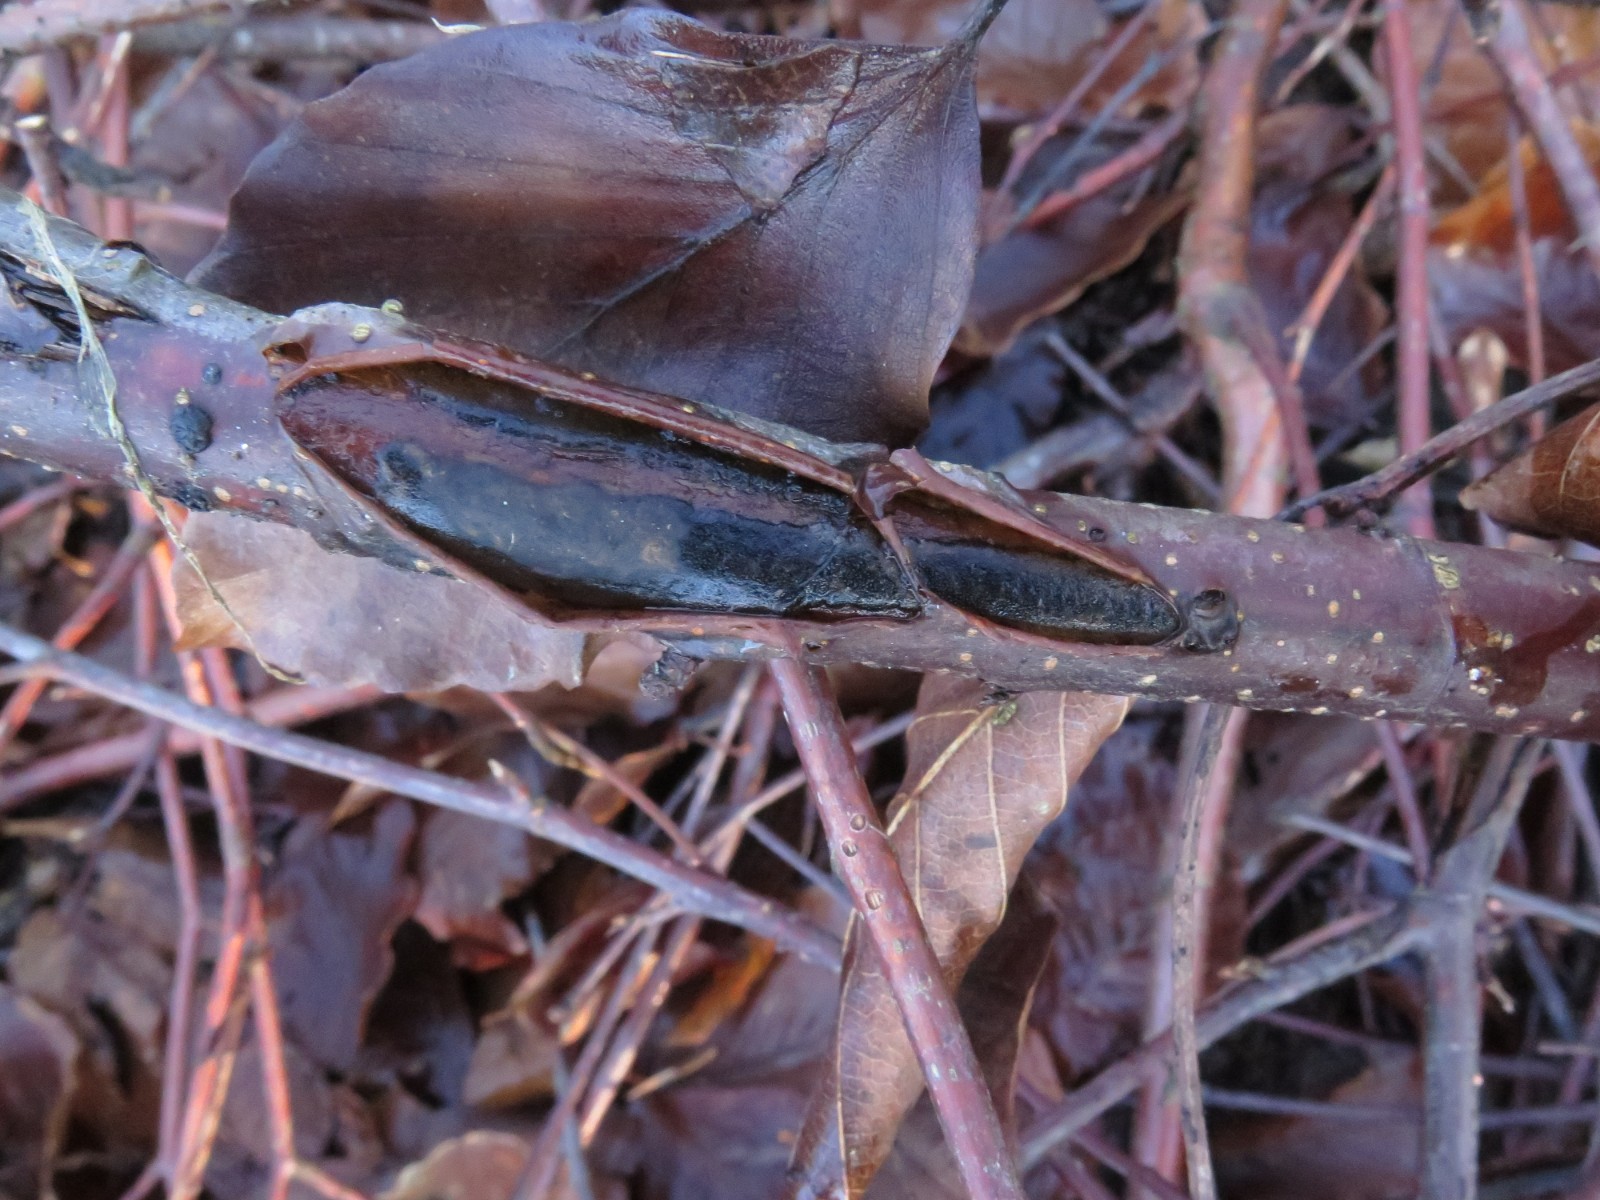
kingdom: Fungi
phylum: Ascomycota
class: Sordariomycetes
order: Xylariales
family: Diatrypaceae
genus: Diatrype
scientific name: Diatrype decorticata
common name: barksprænger-kulskorpe
